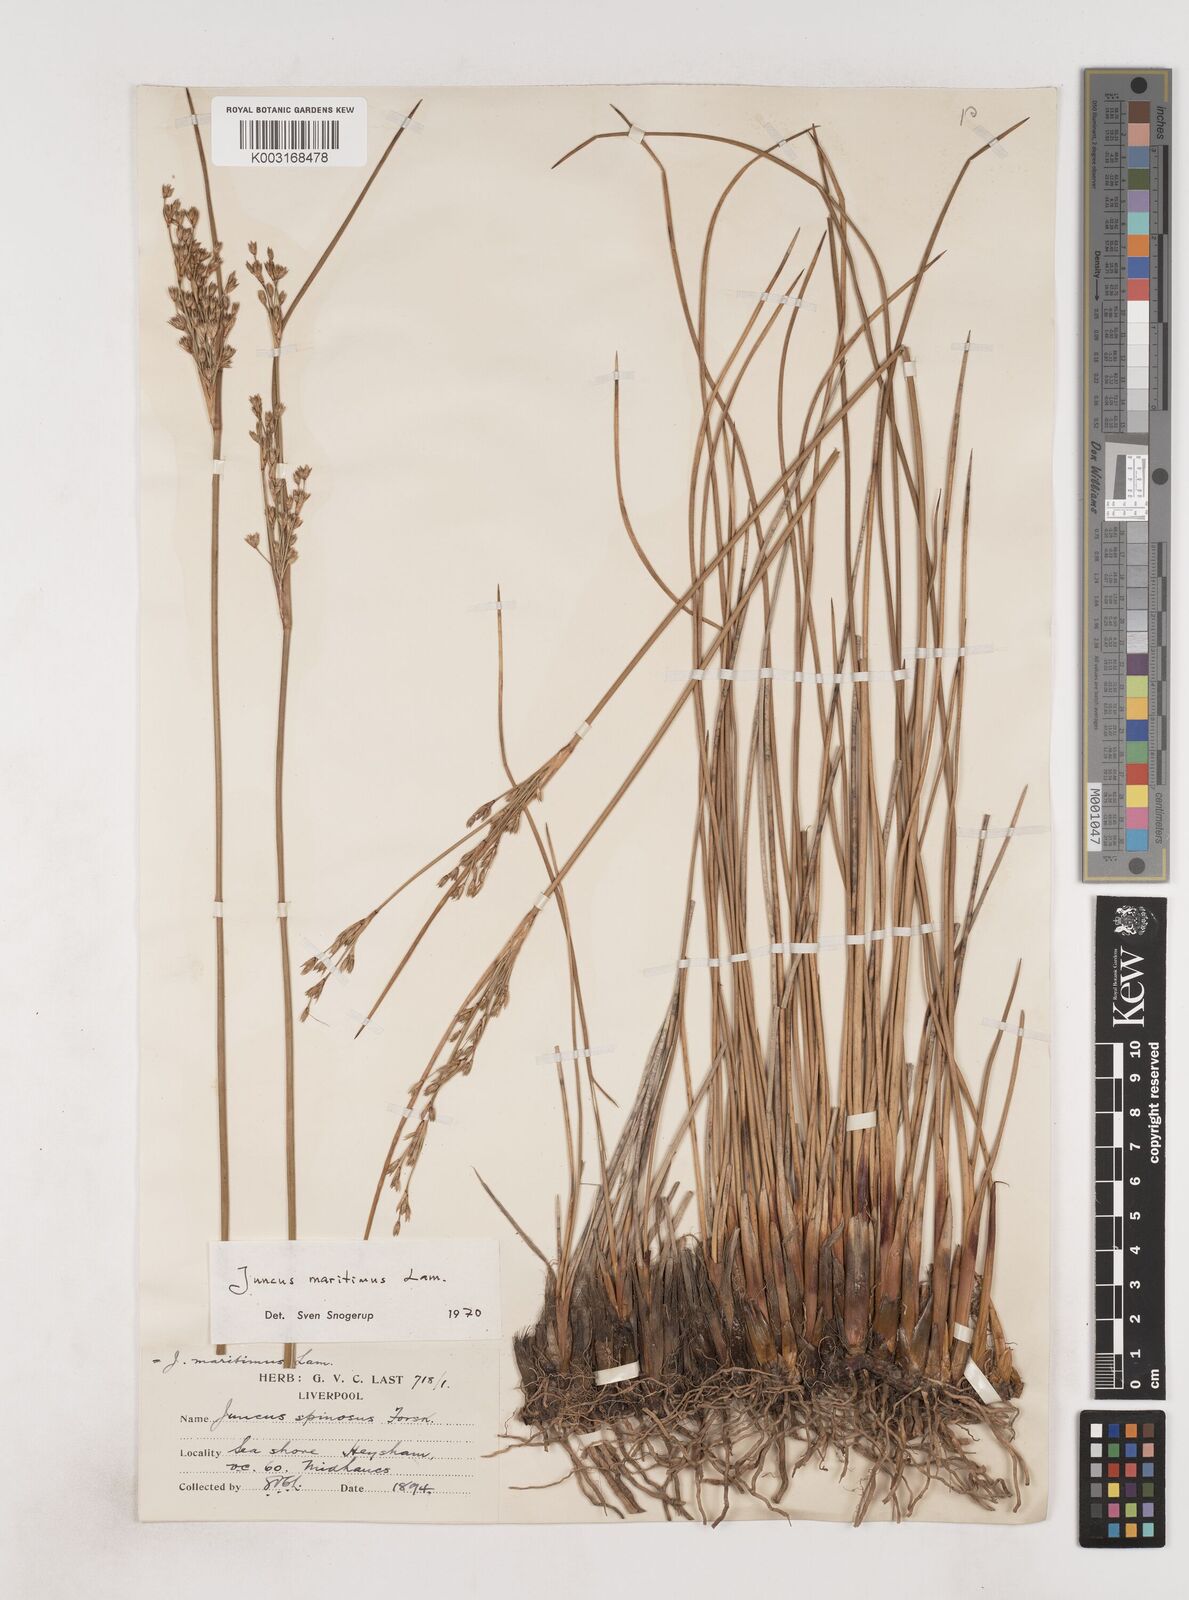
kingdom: Plantae
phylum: Tracheophyta
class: Liliopsida
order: Poales
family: Juncaceae
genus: Juncus
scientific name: Juncus maritimus
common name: Sea rush
